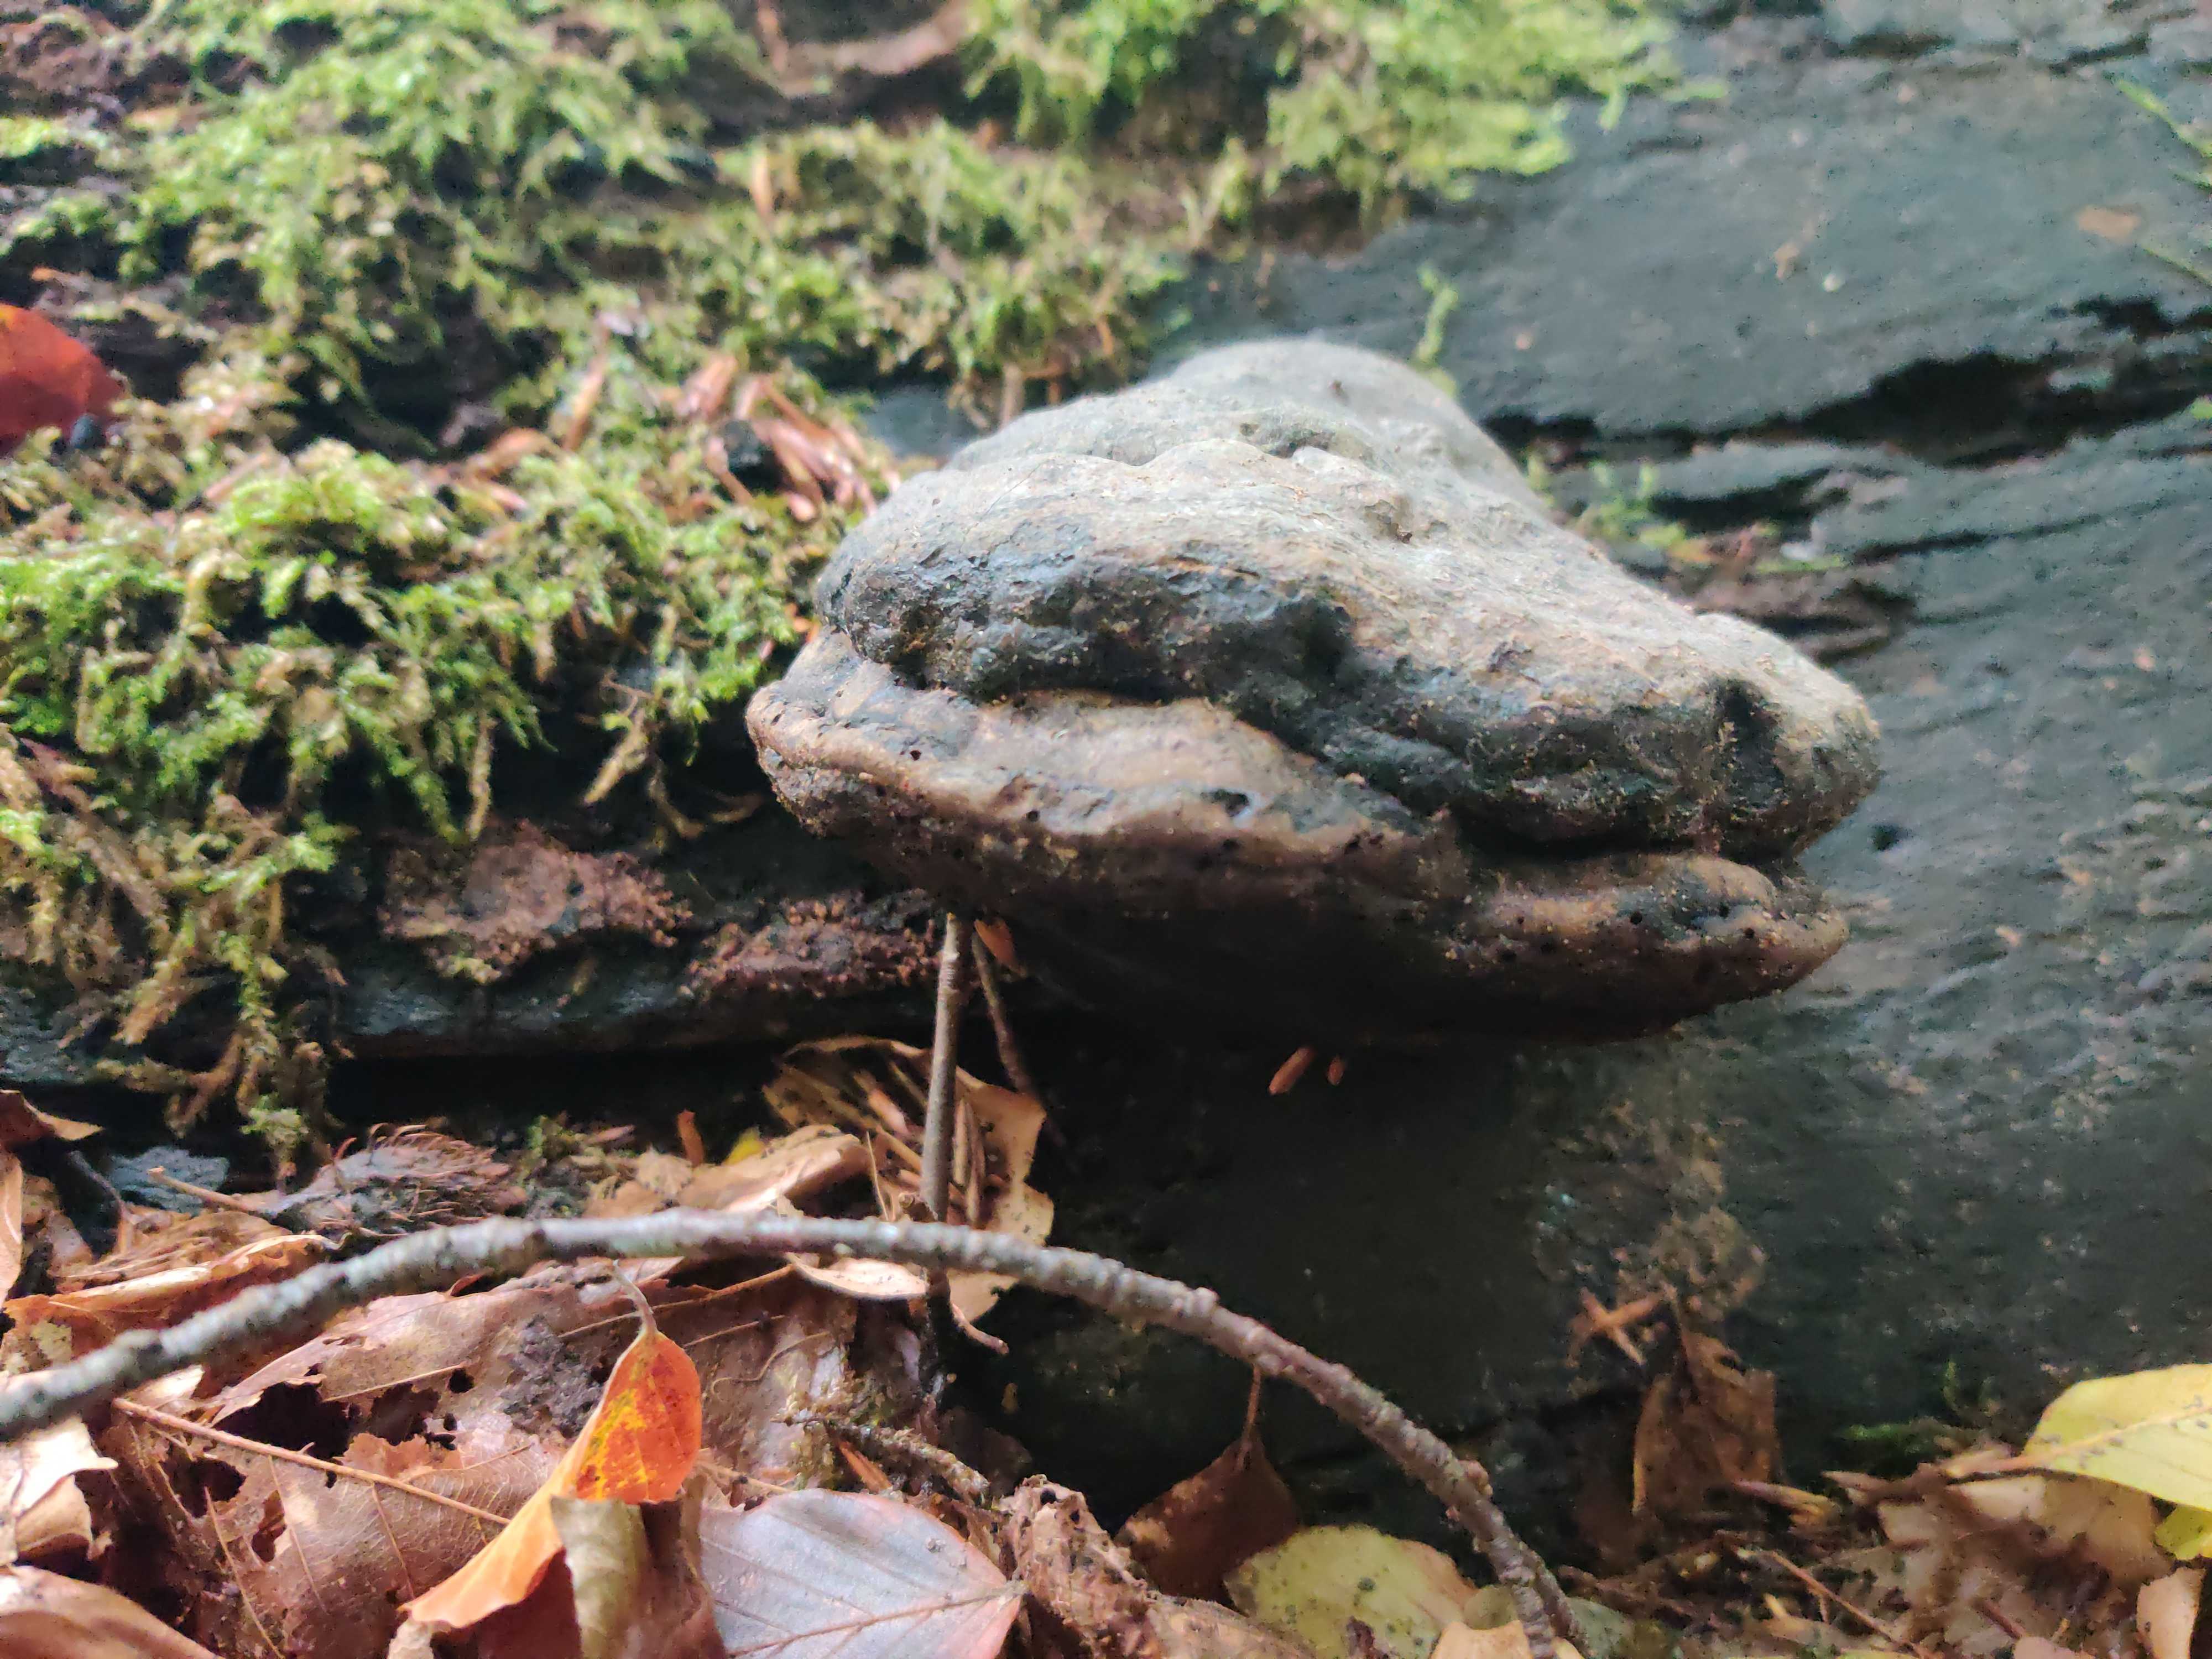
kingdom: Fungi
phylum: Basidiomycota
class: Agaricomycetes
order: Polyporales
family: Polyporaceae
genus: Fomes
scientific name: Fomes fomentarius
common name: tøndersvamp
